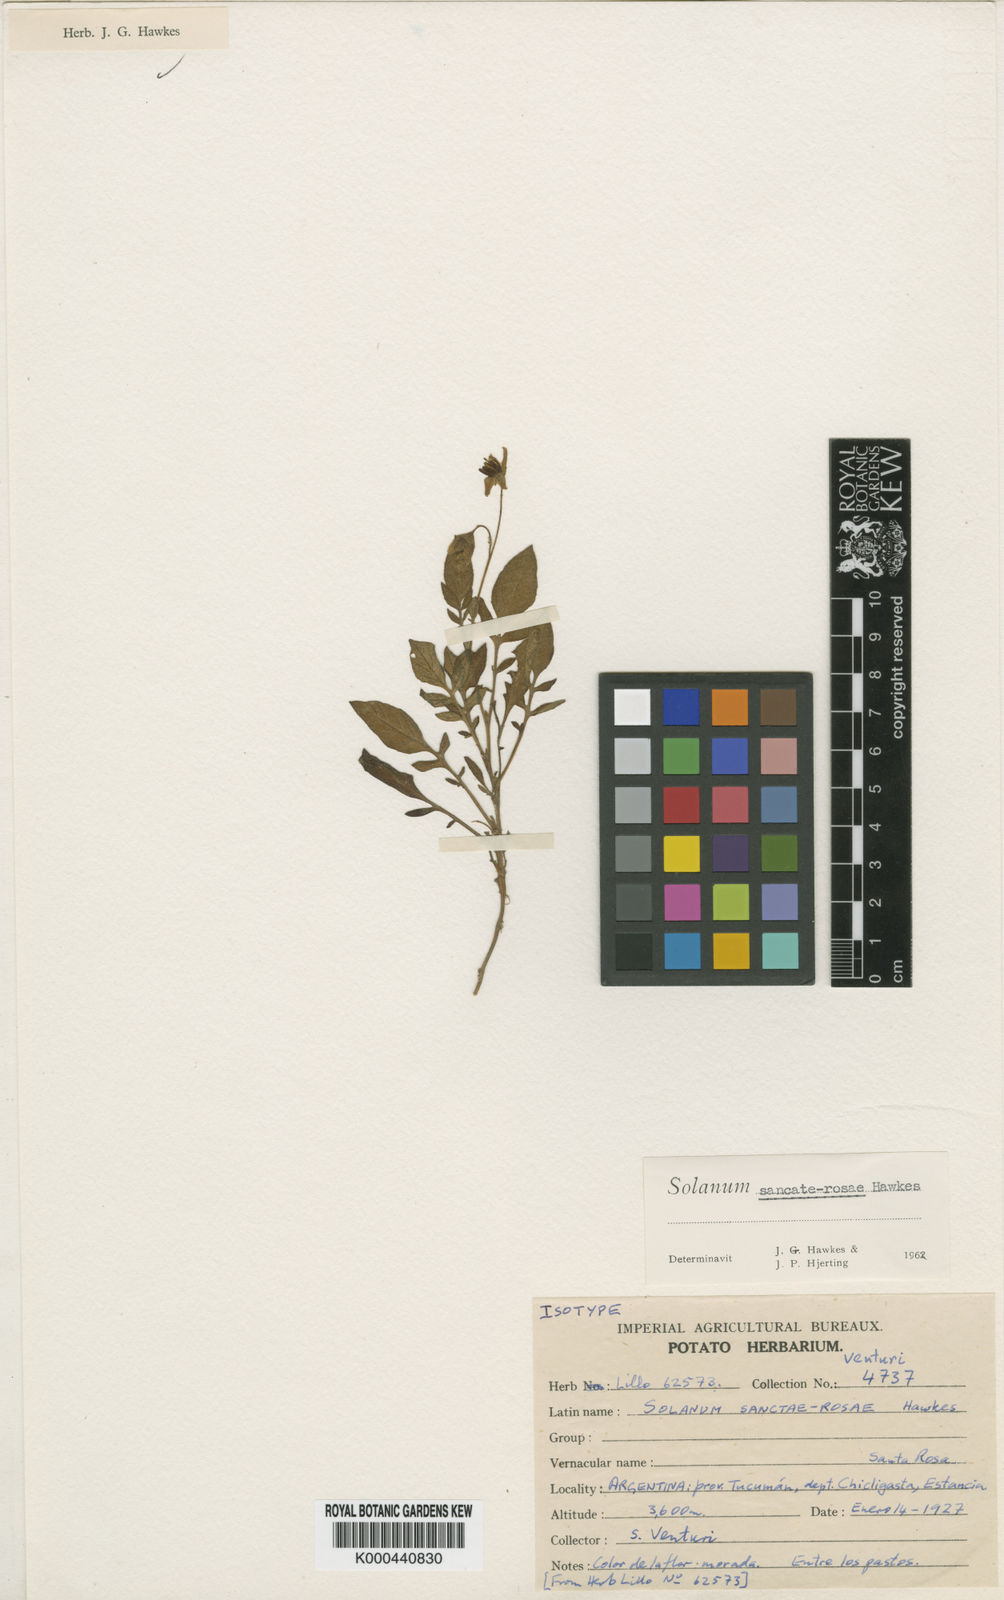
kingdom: Plantae
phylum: Tracheophyta
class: Magnoliopsida
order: Solanales
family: Solanaceae
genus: Solanum
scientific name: Solanum boliviense
